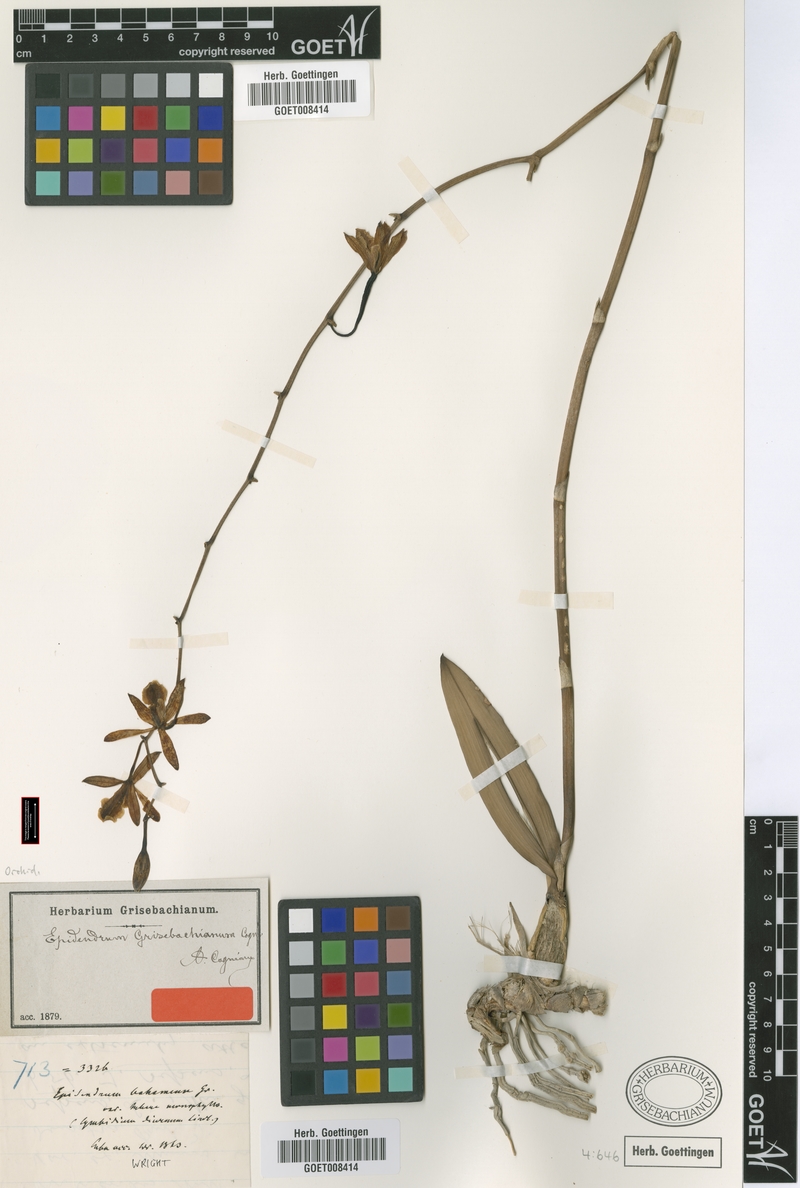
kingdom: Plantae
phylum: Tracheophyta
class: Liliopsida
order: Asparagales
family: Orchidaceae
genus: Encyclia
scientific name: Encyclia grisebachiana
